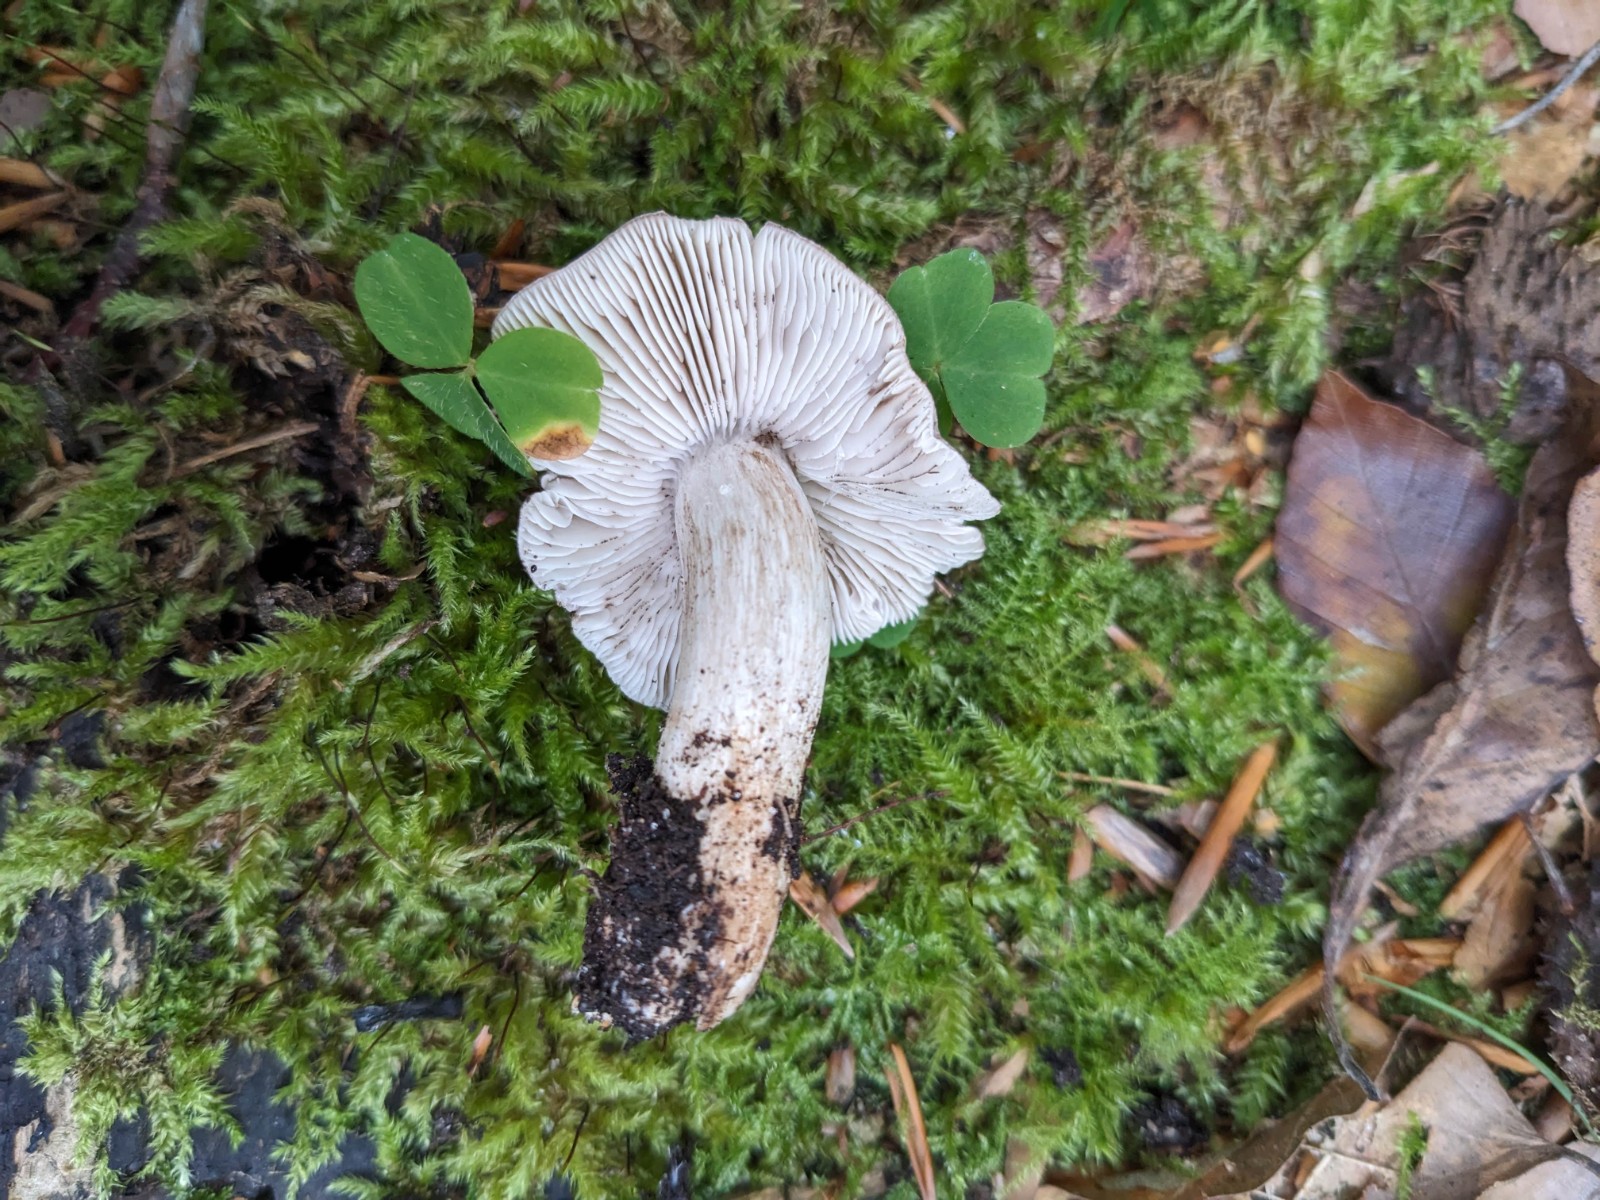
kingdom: Fungi
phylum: Basidiomycota
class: Agaricomycetes
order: Agaricales
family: Tricholomataceae
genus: Tricholoma
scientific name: Tricholoma sciodes
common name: stribet ridderhat
